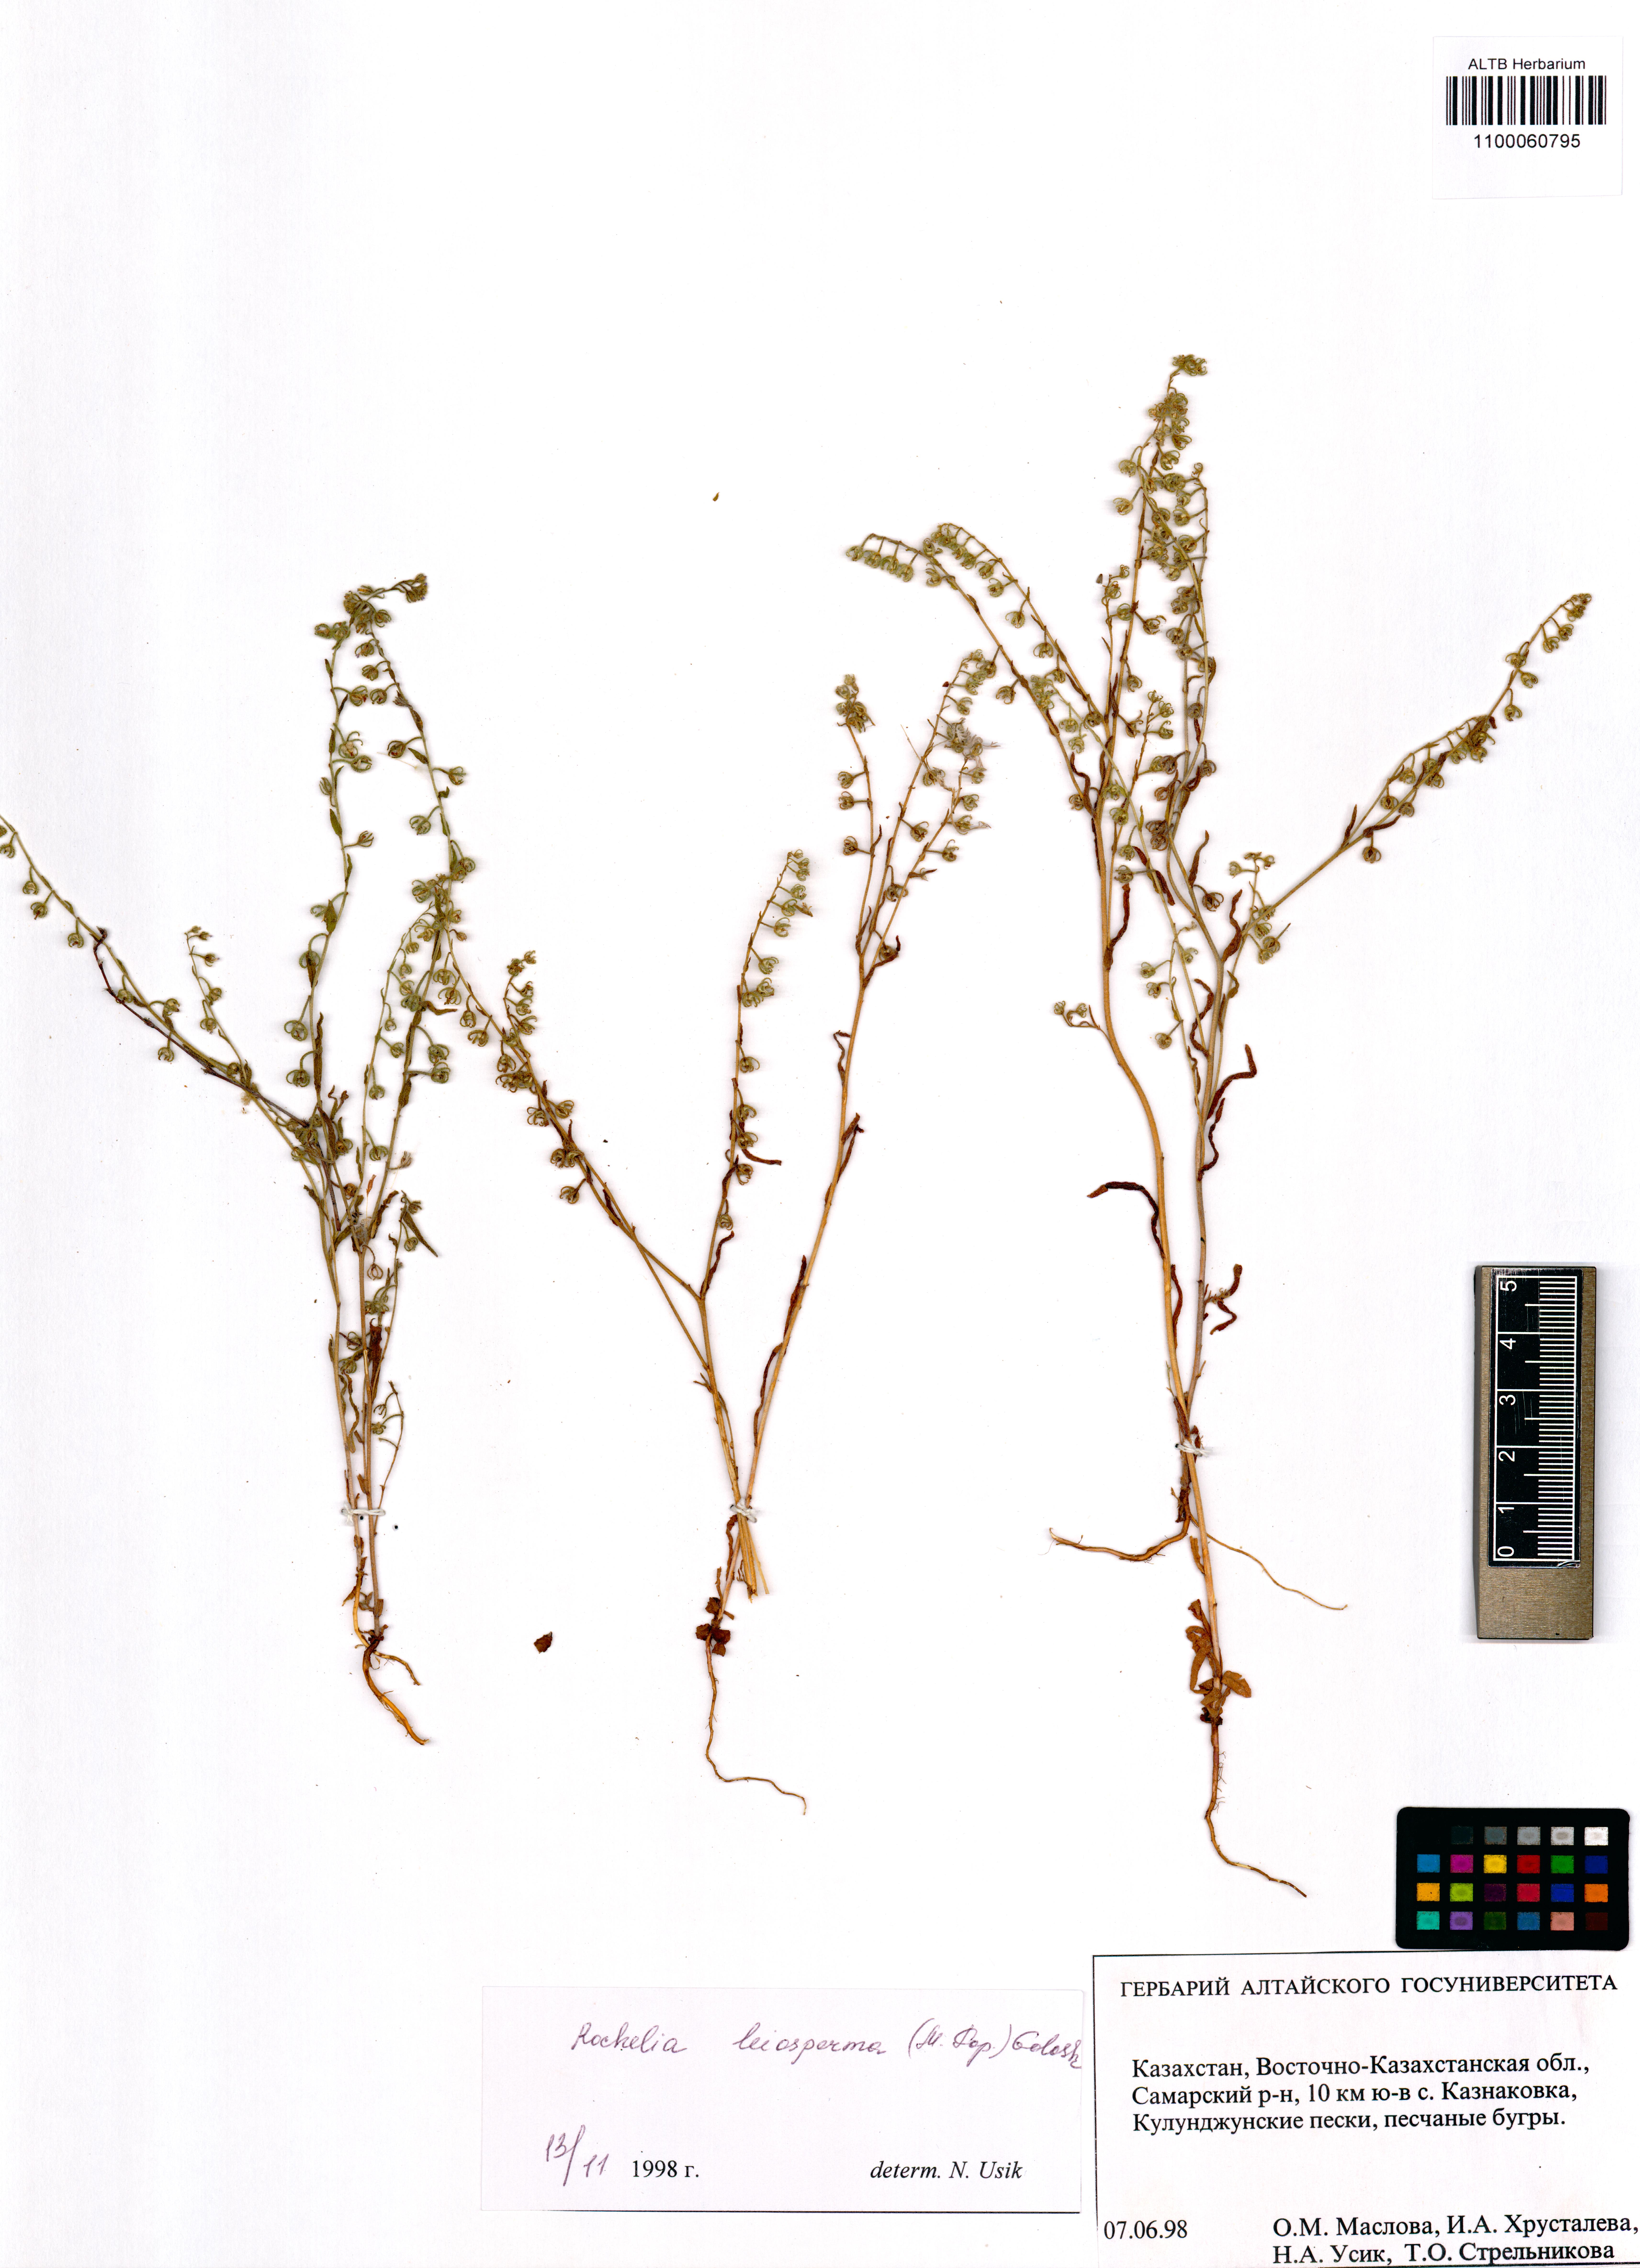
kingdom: Plantae
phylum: Tracheophyta
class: Magnoliopsida
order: Boraginales
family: Boraginaceae
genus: Rochelia
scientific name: Rochelia leiosperma
